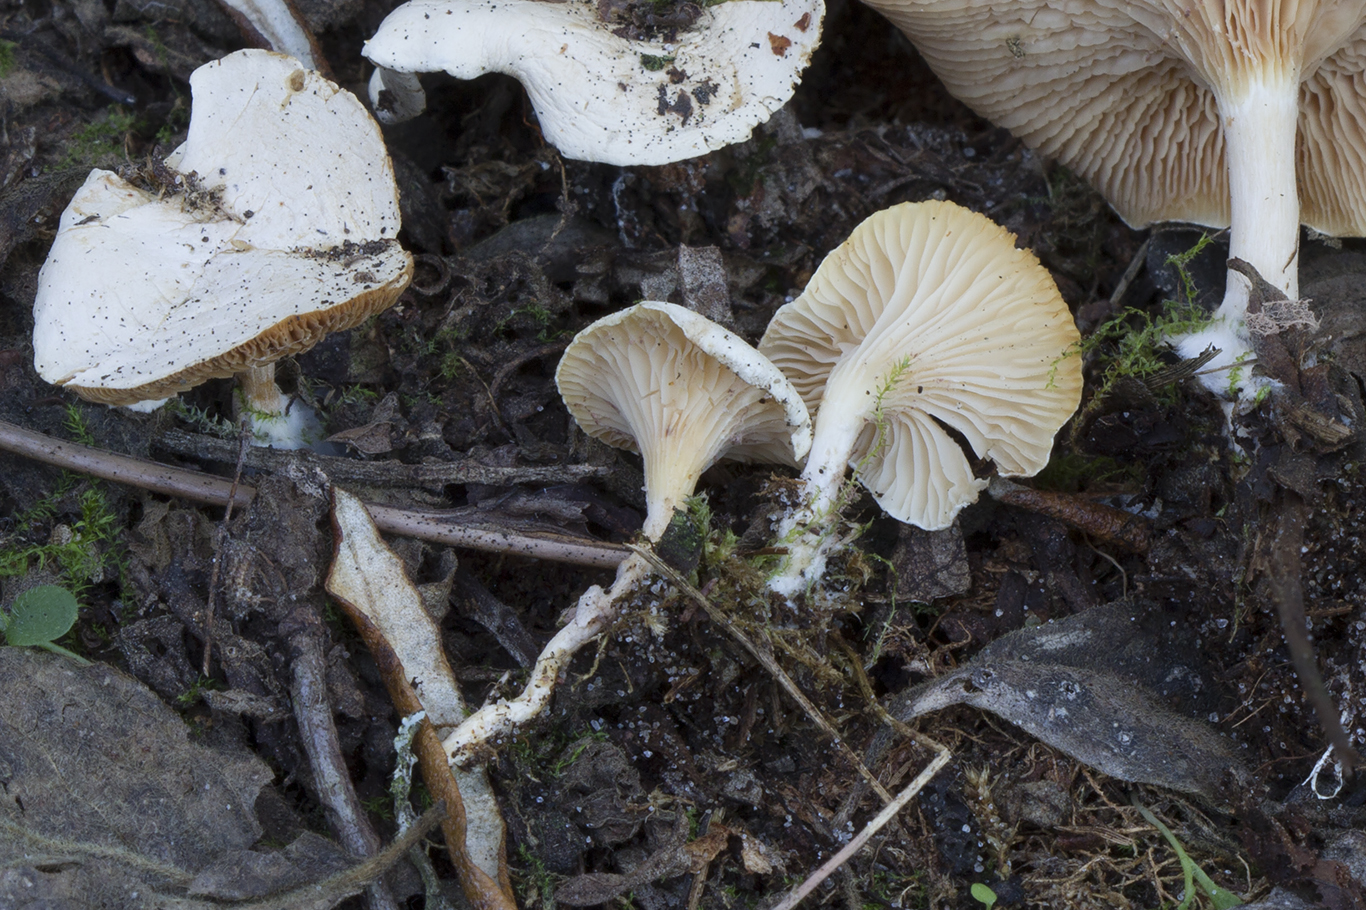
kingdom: Fungi
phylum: Basidiomycota
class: Agaricomycetes
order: Agaricales
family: Tricholomataceae
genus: Lulesia
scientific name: Lulesia
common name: hvid troldhat
